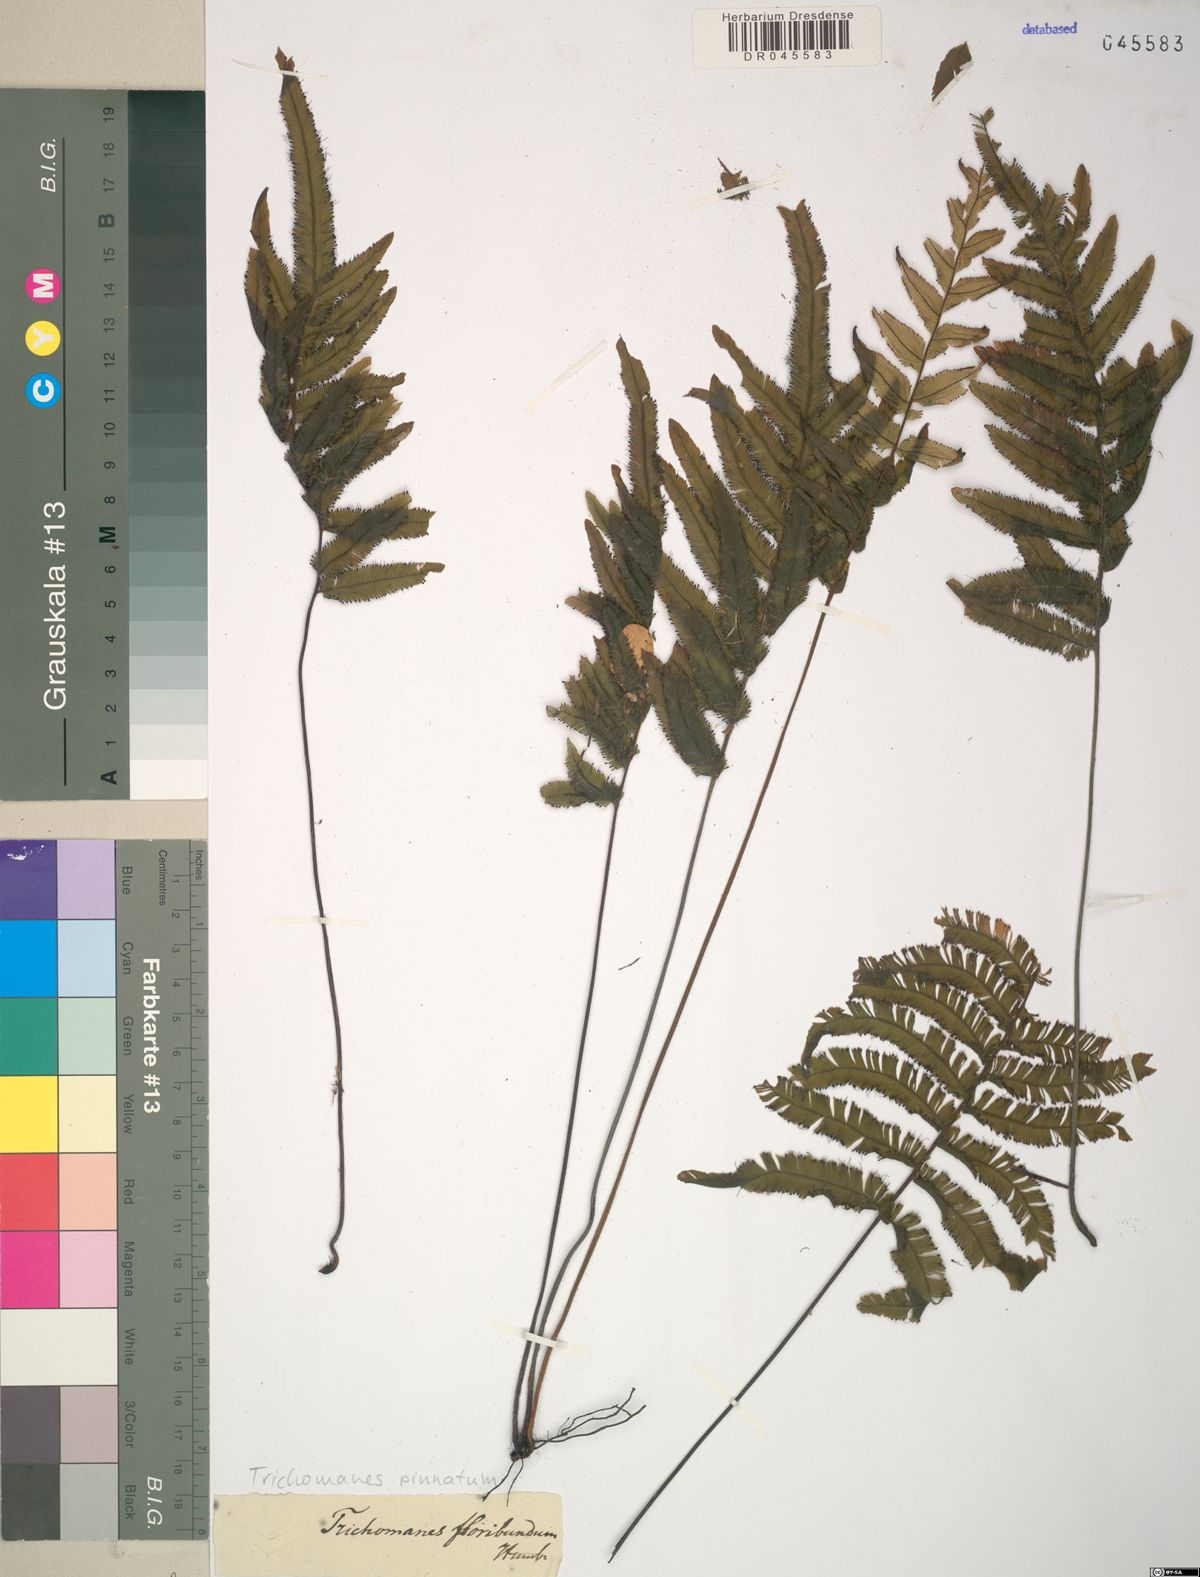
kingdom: Plantae
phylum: Tracheophyta
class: Polypodiopsida
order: Hymenophyllales
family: Hymenophyllaceae
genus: Trichomanes
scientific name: Trichomanes pinnatum
